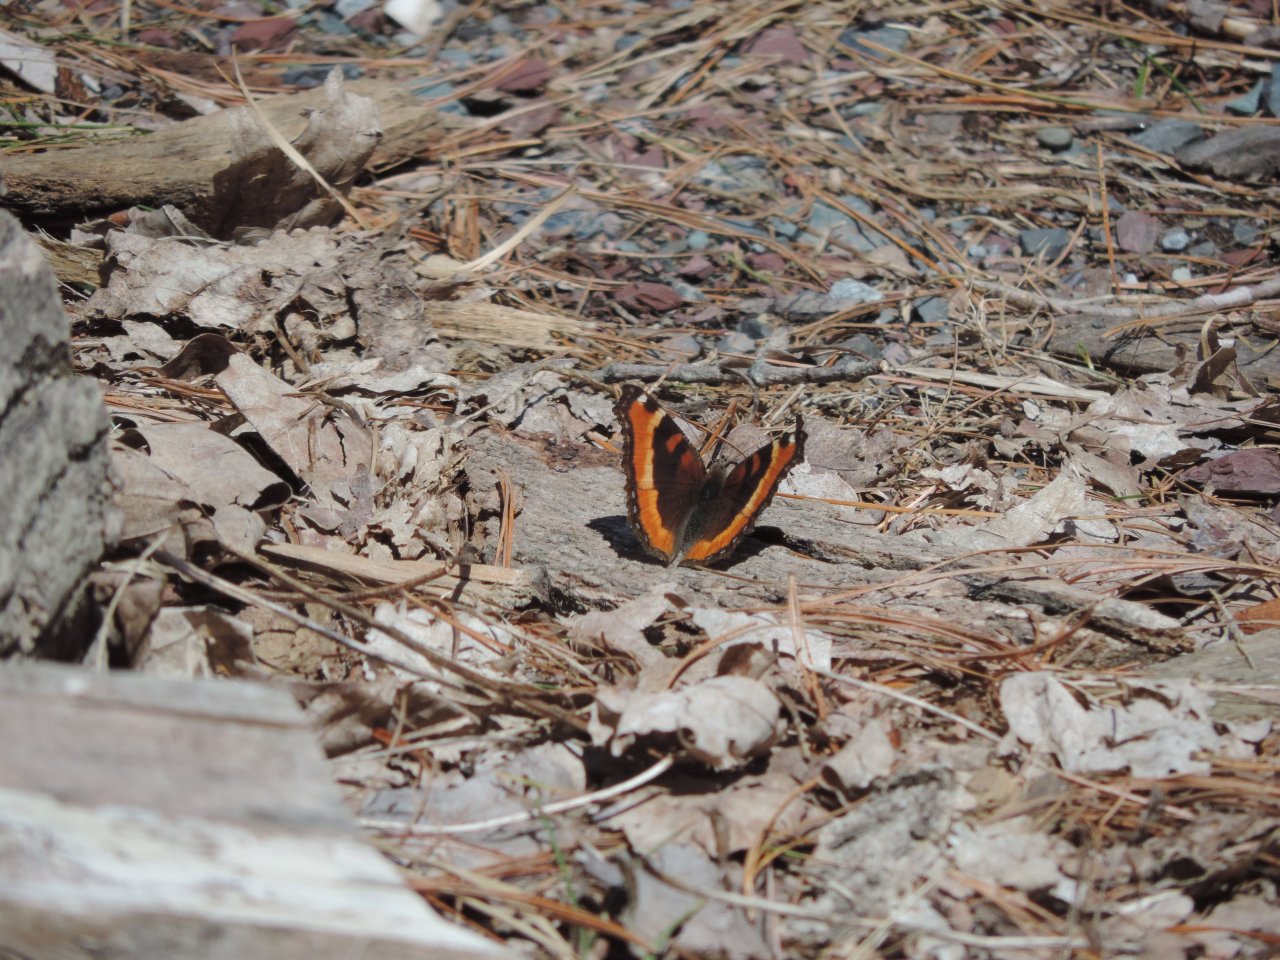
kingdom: Animalia
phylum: Arthropoda
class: Insecta
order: Lepidoptera
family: Nymphalidae
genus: Aglais
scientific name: Aglais milberti
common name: Milbert's Tortoiseshell
